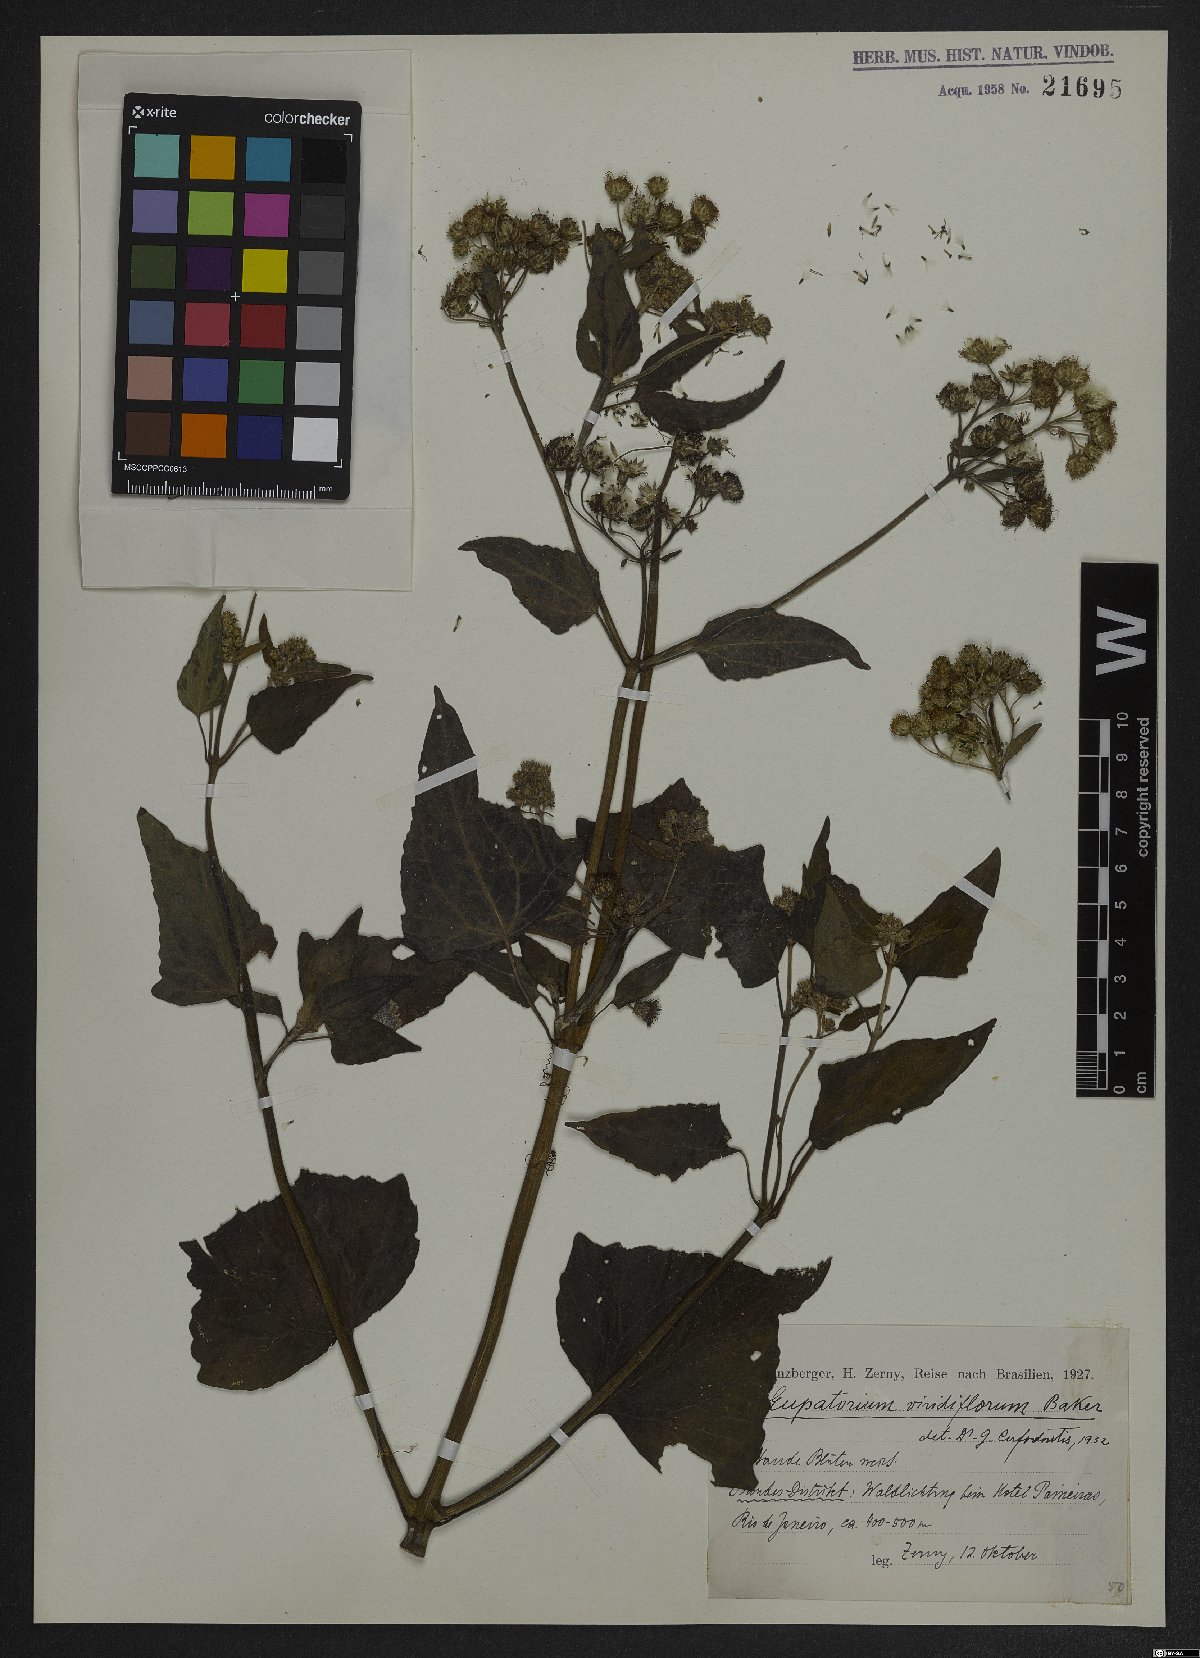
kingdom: Plantae
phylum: Tracheophyta
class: Magnoliopsida
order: Asterales
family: Asteraceae
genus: Bartlettina
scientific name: Bartlettina conspicua
